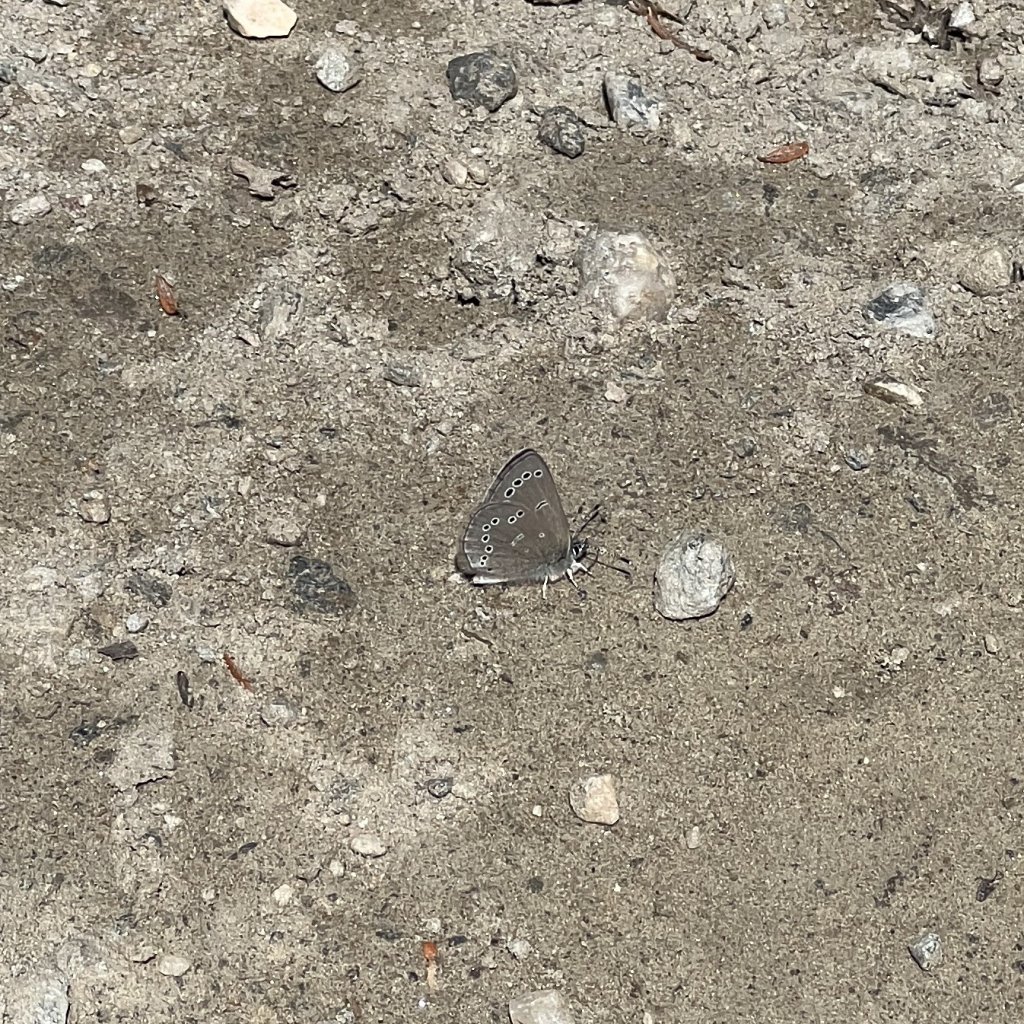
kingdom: Animalia
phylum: Arthropoda
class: Insecta
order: Lepidoptera
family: Lycaenidae
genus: Glaucopsyche
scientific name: Glaucopsyche lygdamus
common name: Silvery Blue
